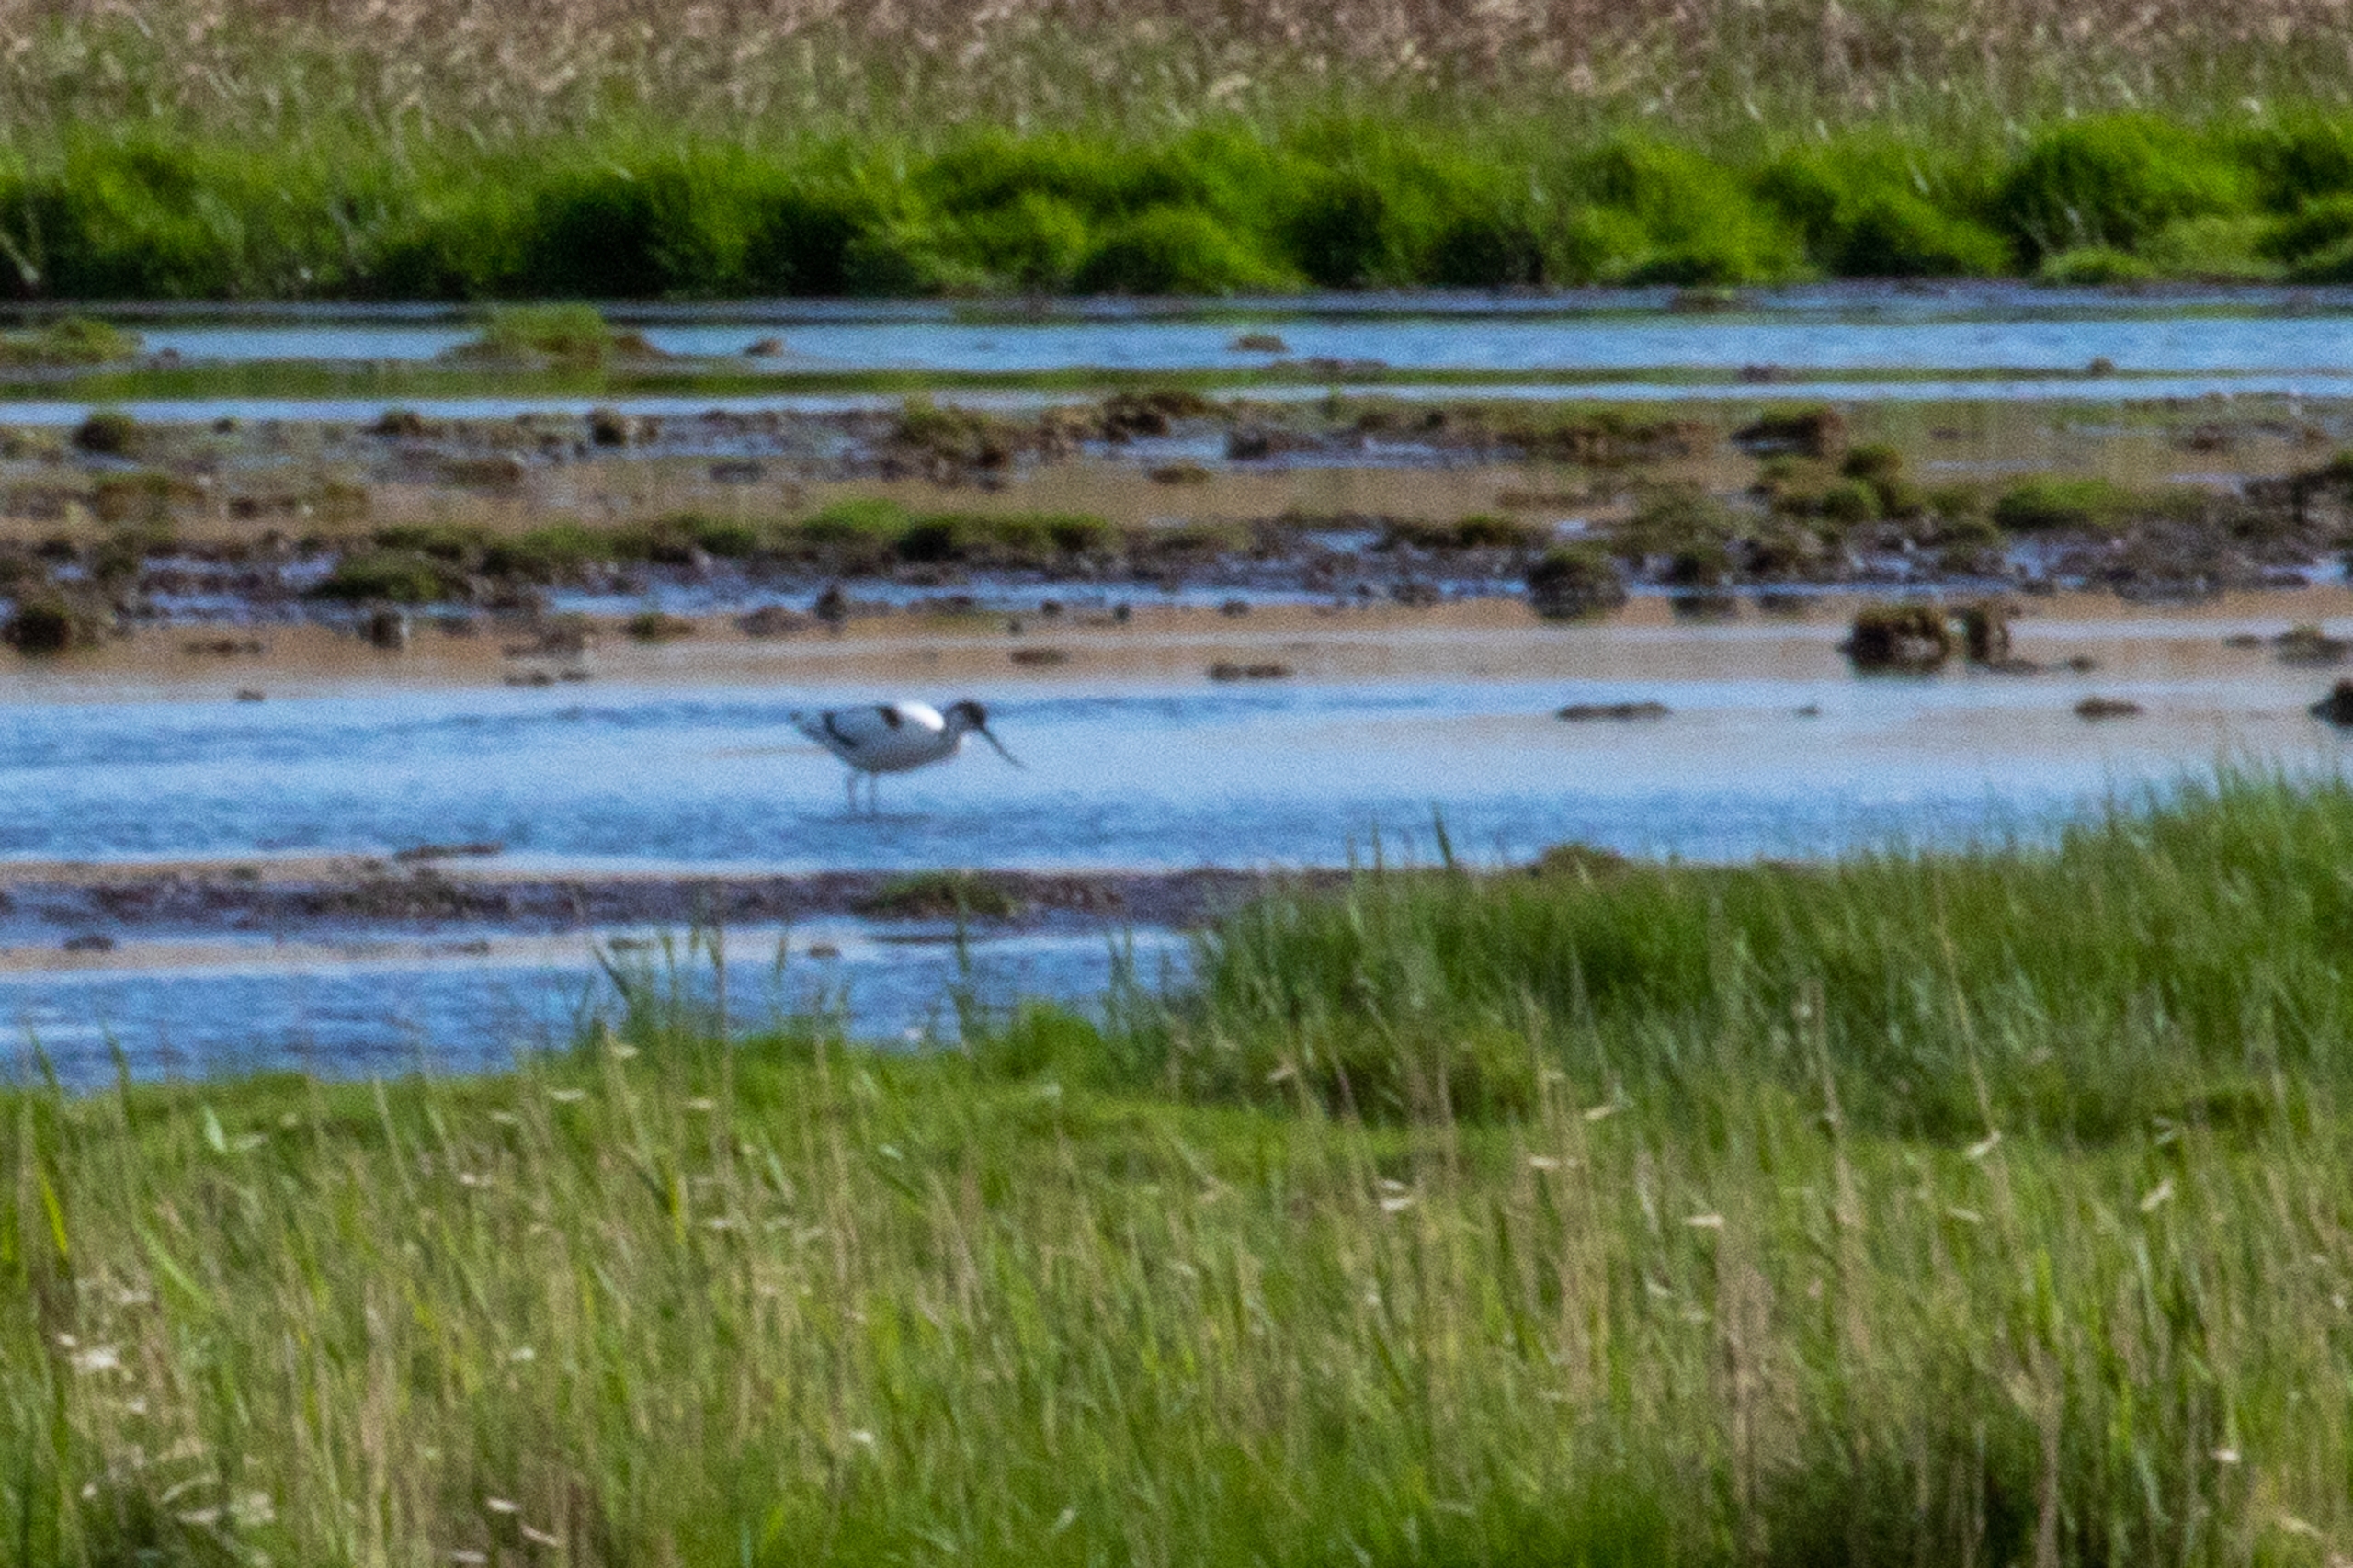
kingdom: Animalia
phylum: Chordata
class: Aves
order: Charadriiformes
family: Recurvirostridae
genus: Recurvirostra
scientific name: Recurvirostra avosetta
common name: Klyde
